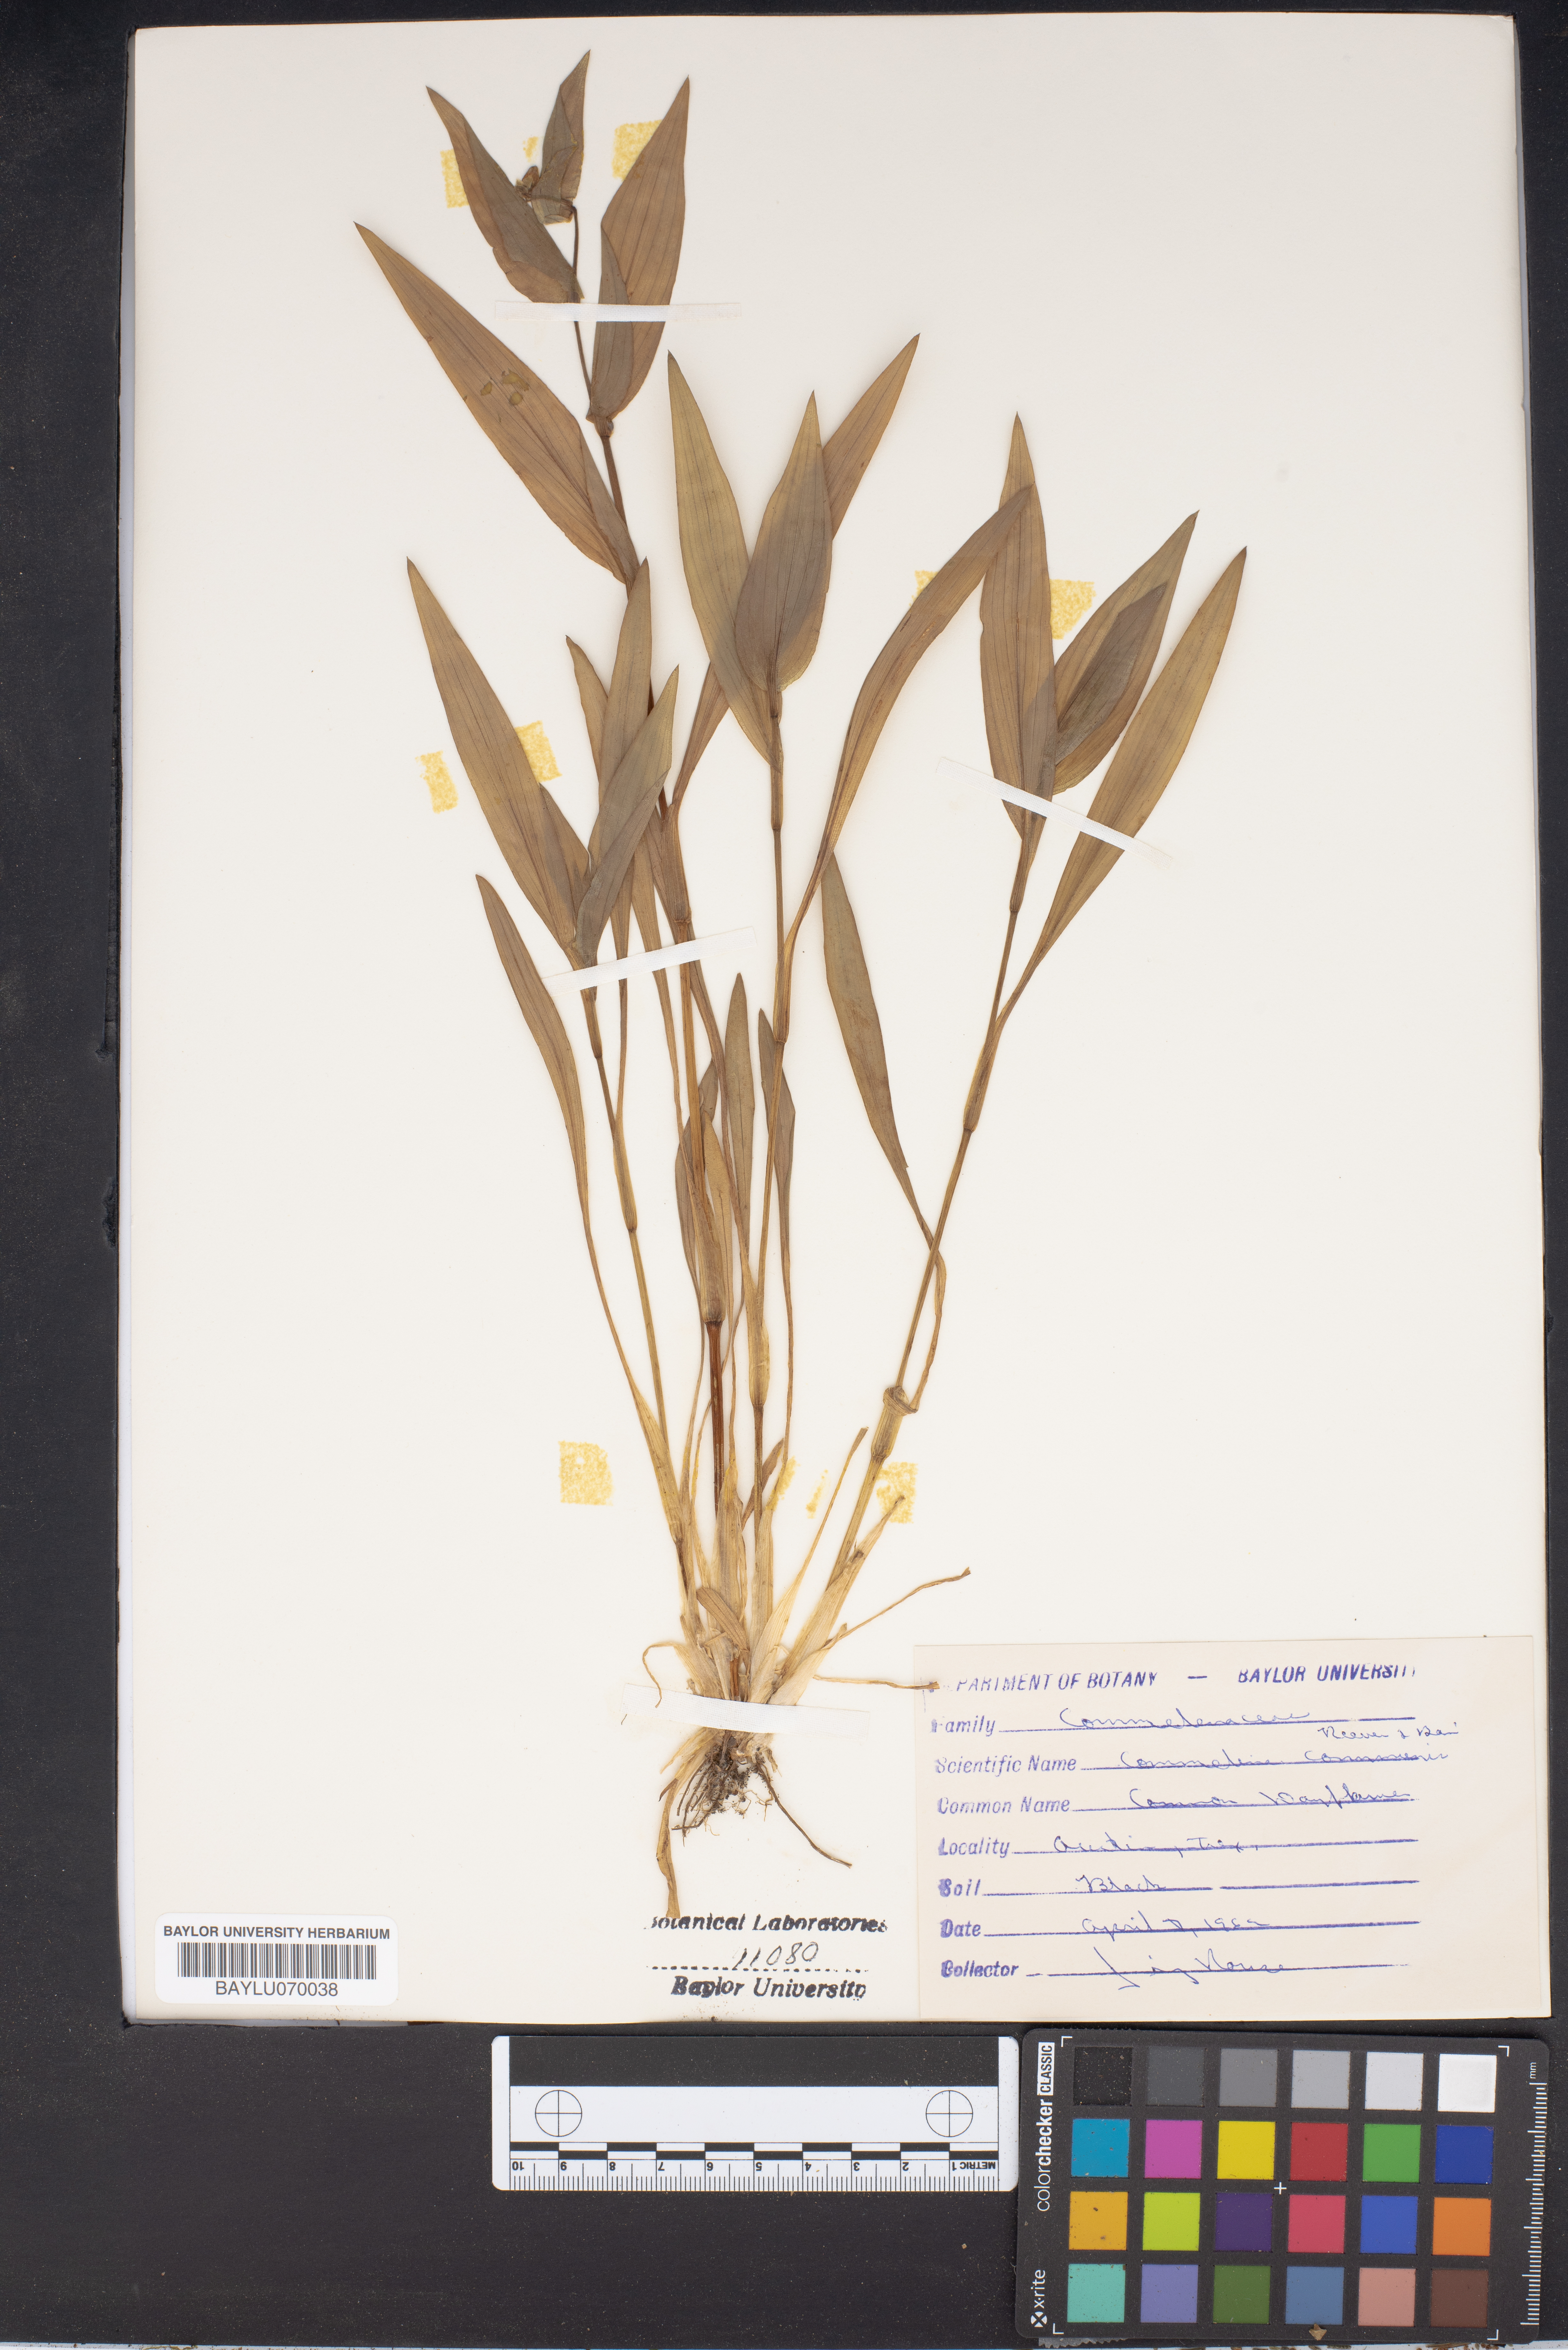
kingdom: Plantae
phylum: Tracheophyta
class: Liliopsida
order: Commelinales
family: Commelinaceae
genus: Commelina
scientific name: Commelina communis
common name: Asiatic dayflower
